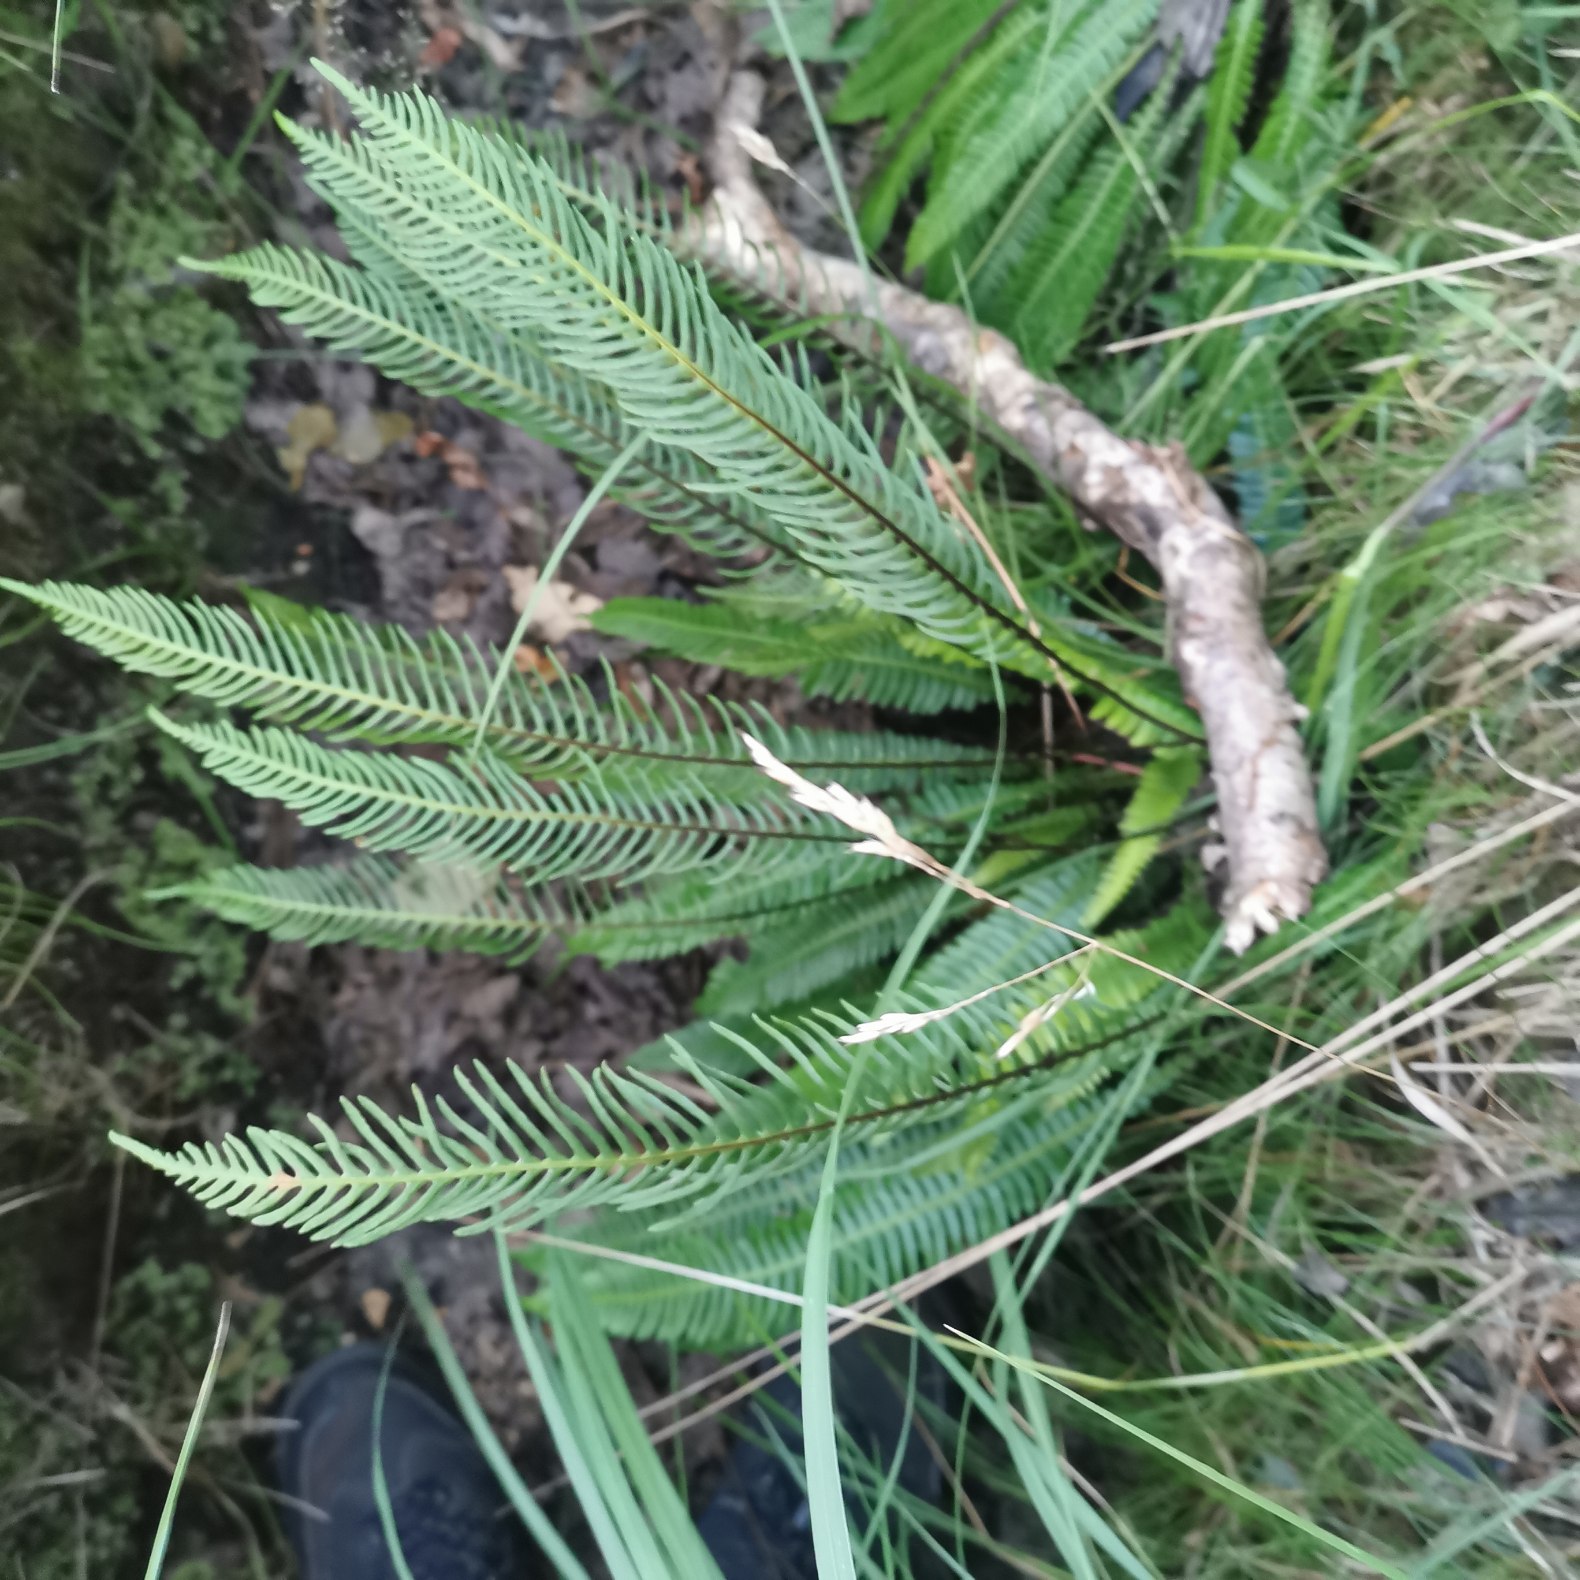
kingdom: Plantae
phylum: Tracheophyta
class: Polypodiopsida
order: Polypodiales
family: Blechnaceae
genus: Struthiopteris
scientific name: Struthiopteris spicant
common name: Kambregne
